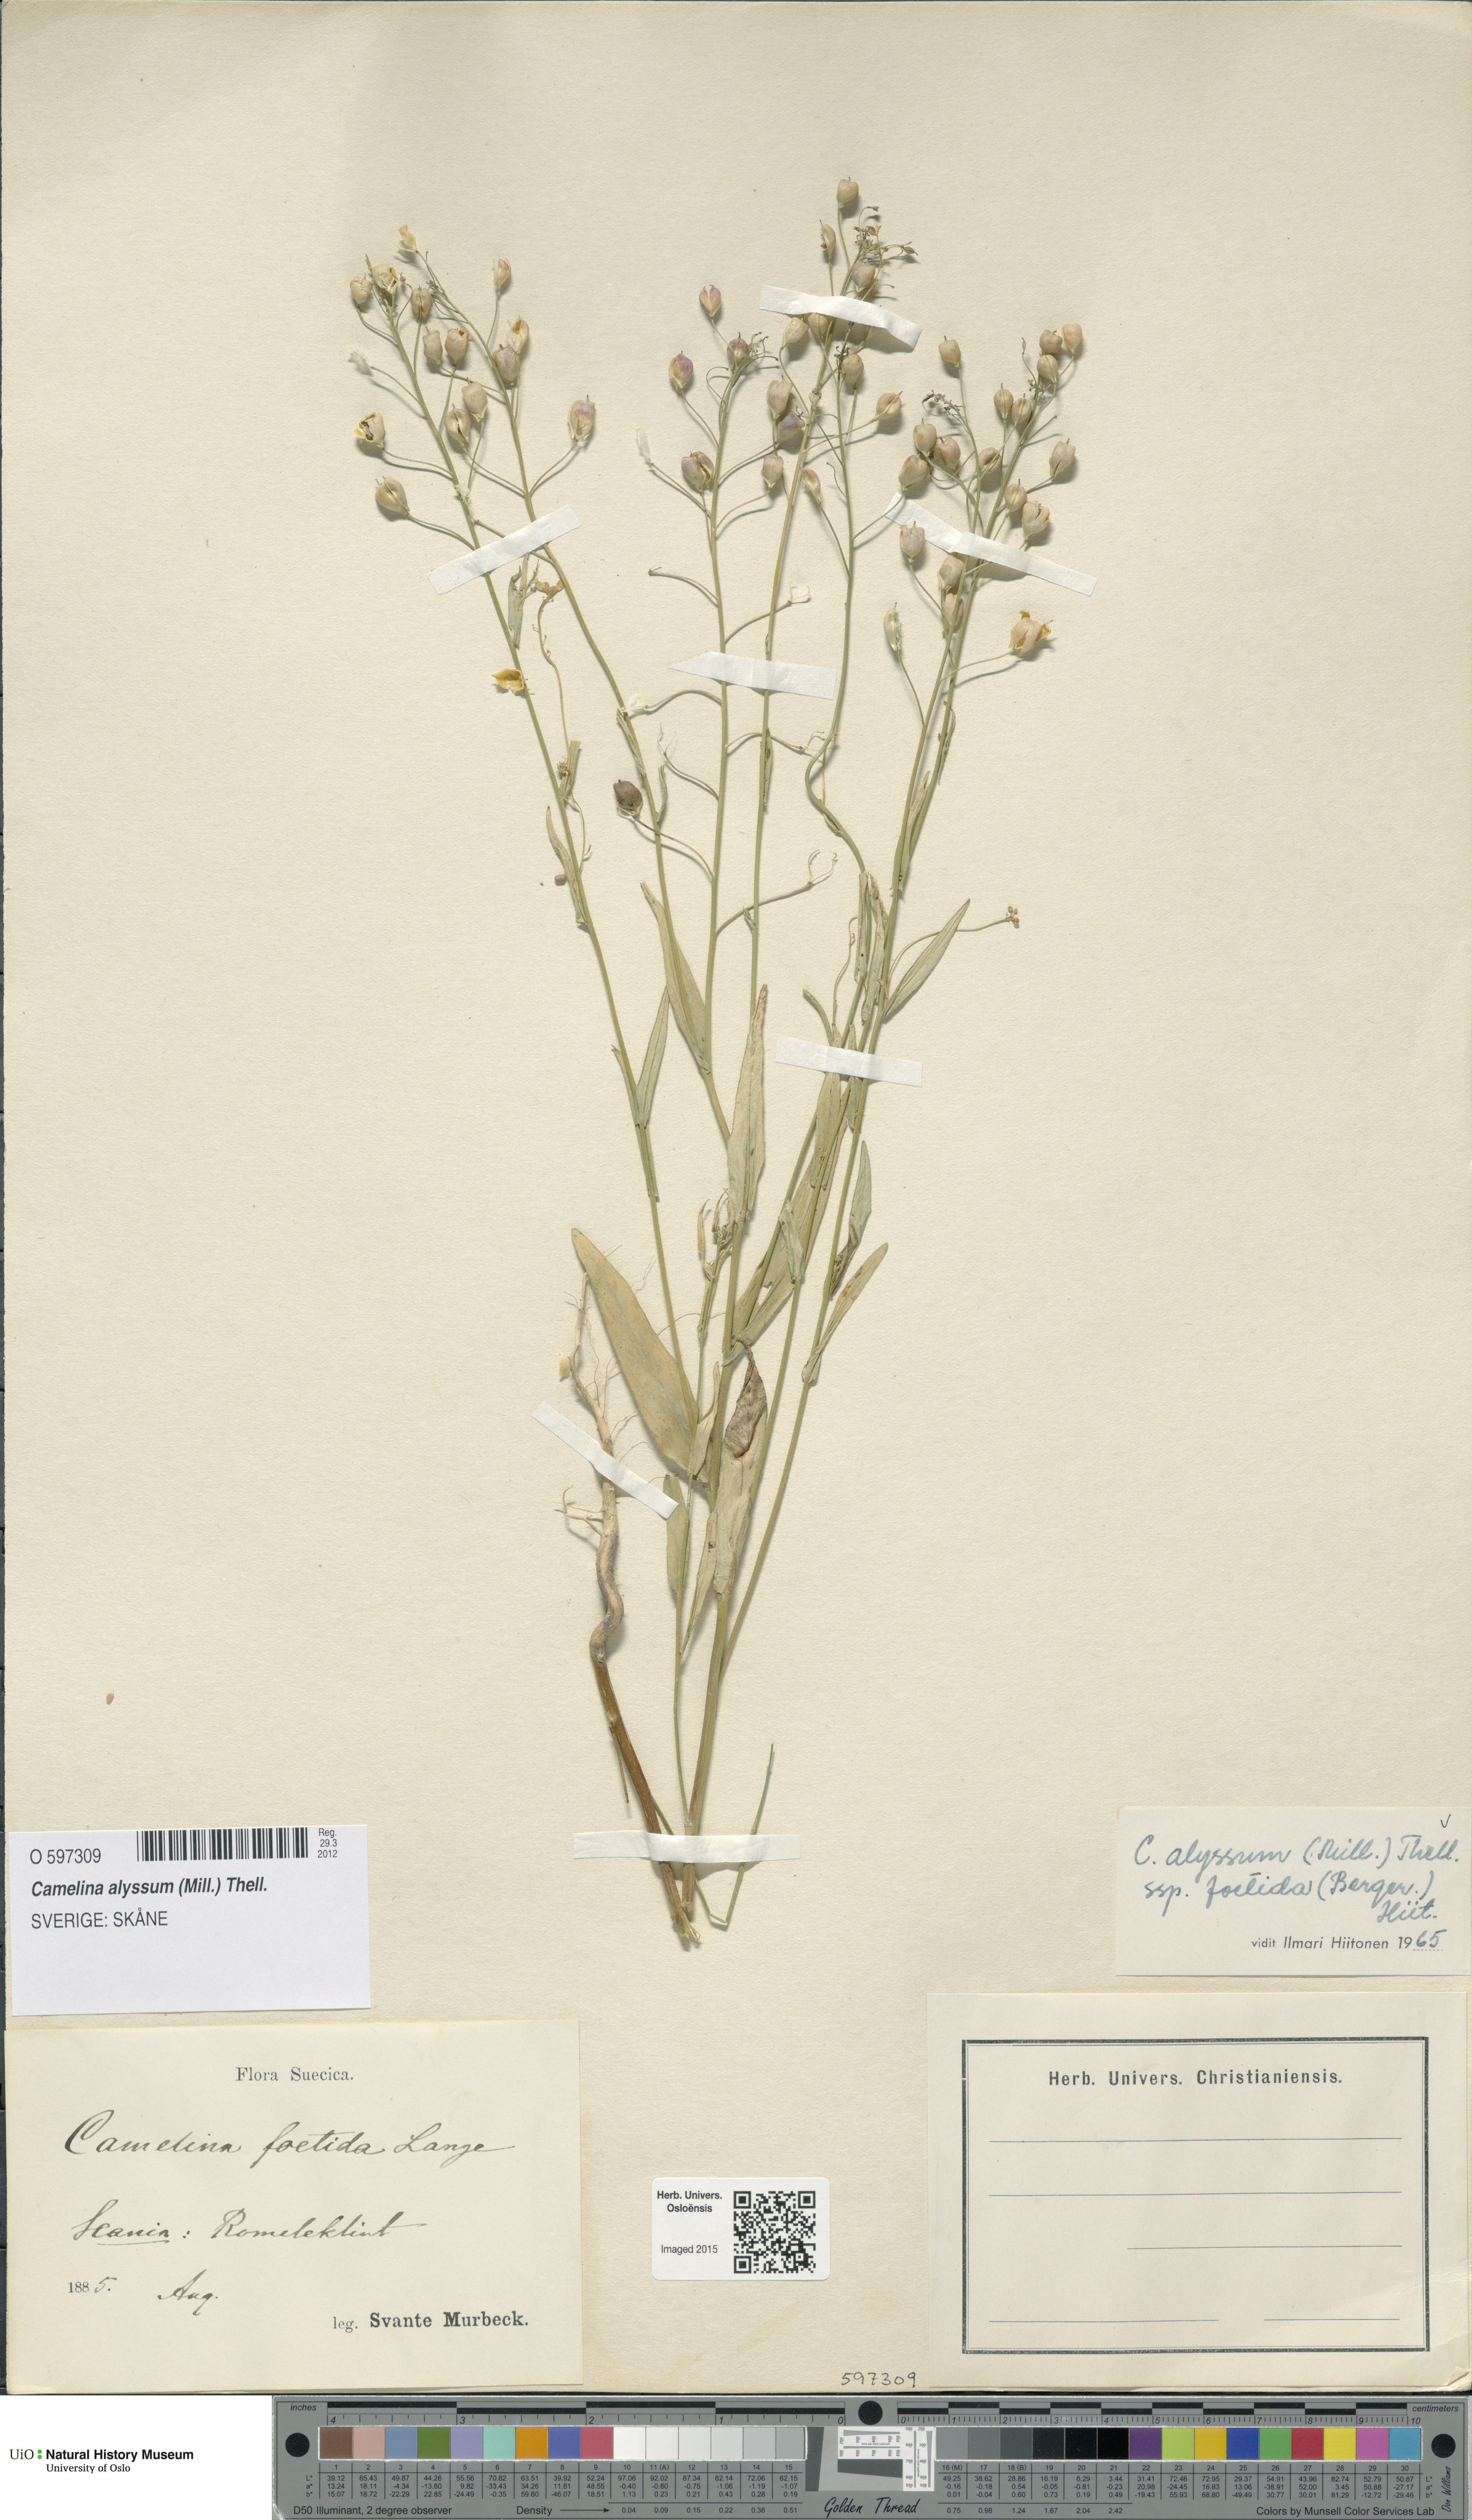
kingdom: Plantae
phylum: Tracheophyta
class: Magnoliopsida
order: Brassicales
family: Brassicaceae
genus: Camelina
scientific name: Camelina alyssum
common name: Gold-of-pleasure
